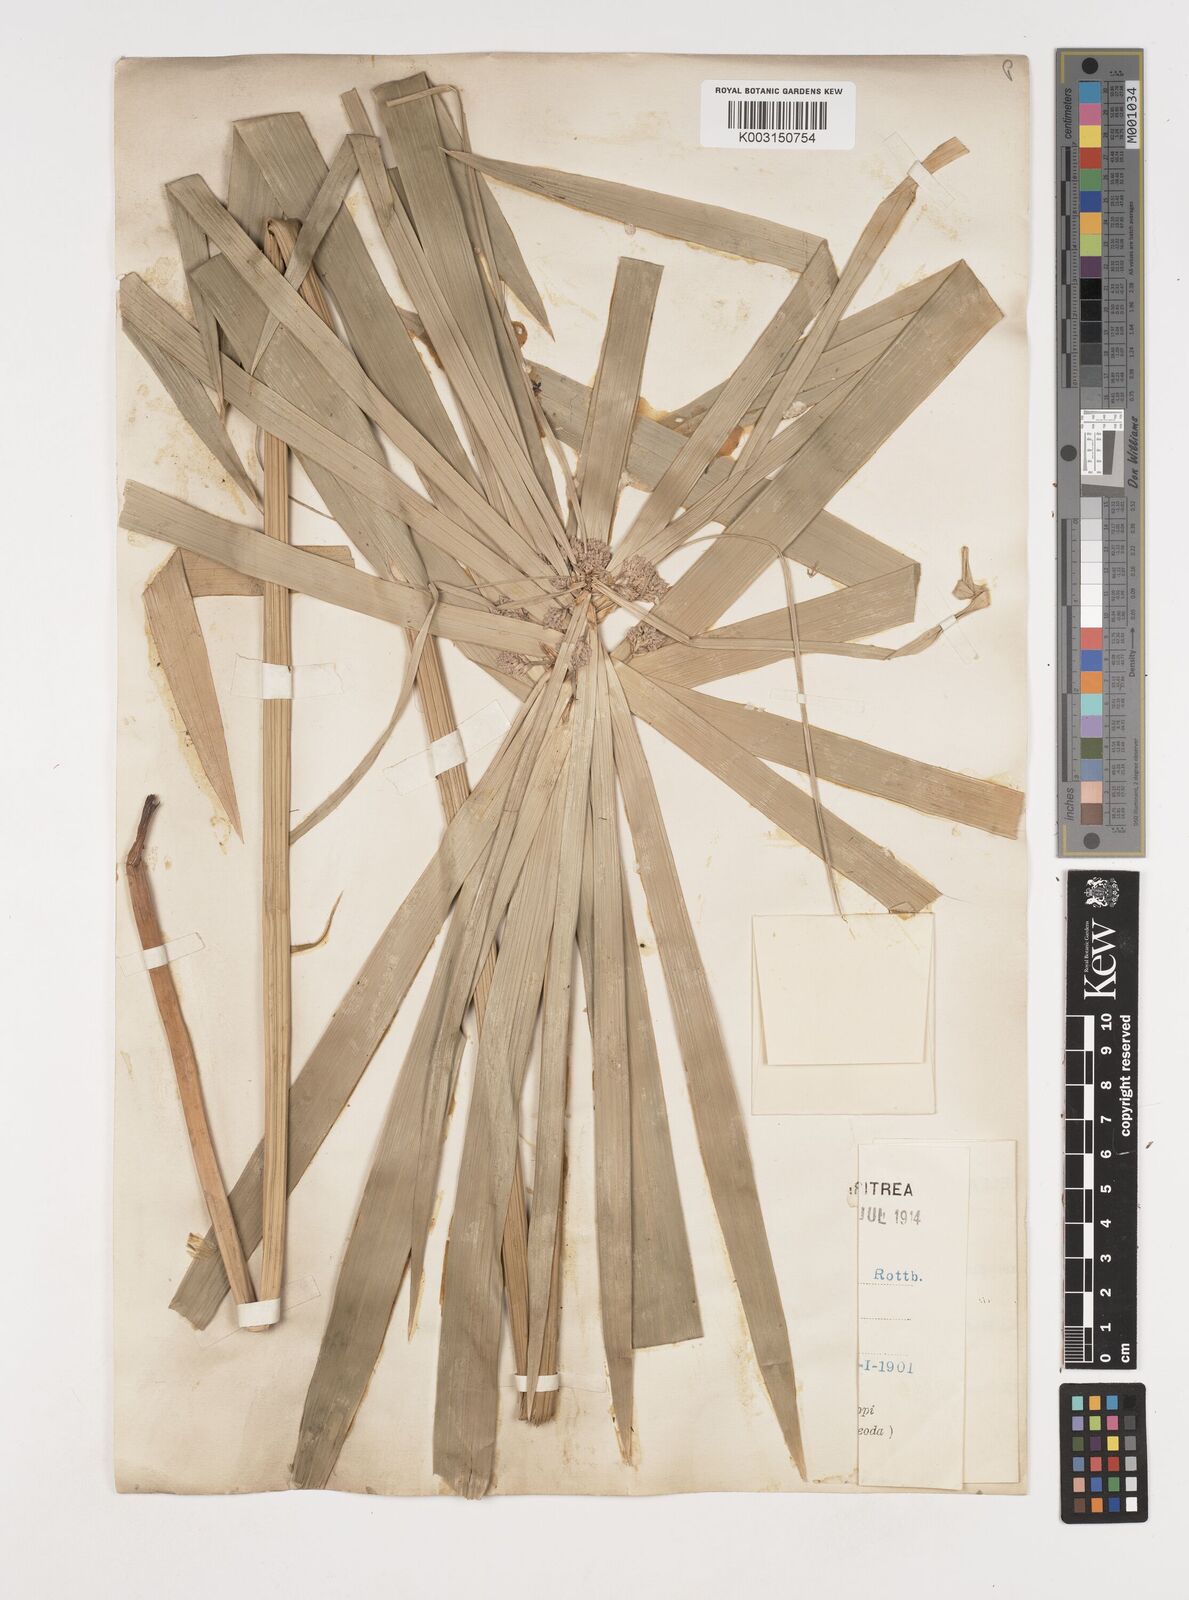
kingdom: Plantae
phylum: Tracheophyta
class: Liliopsida
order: Poales
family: Cyperaceae
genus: Cyperus
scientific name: Cyperus alternifolius
